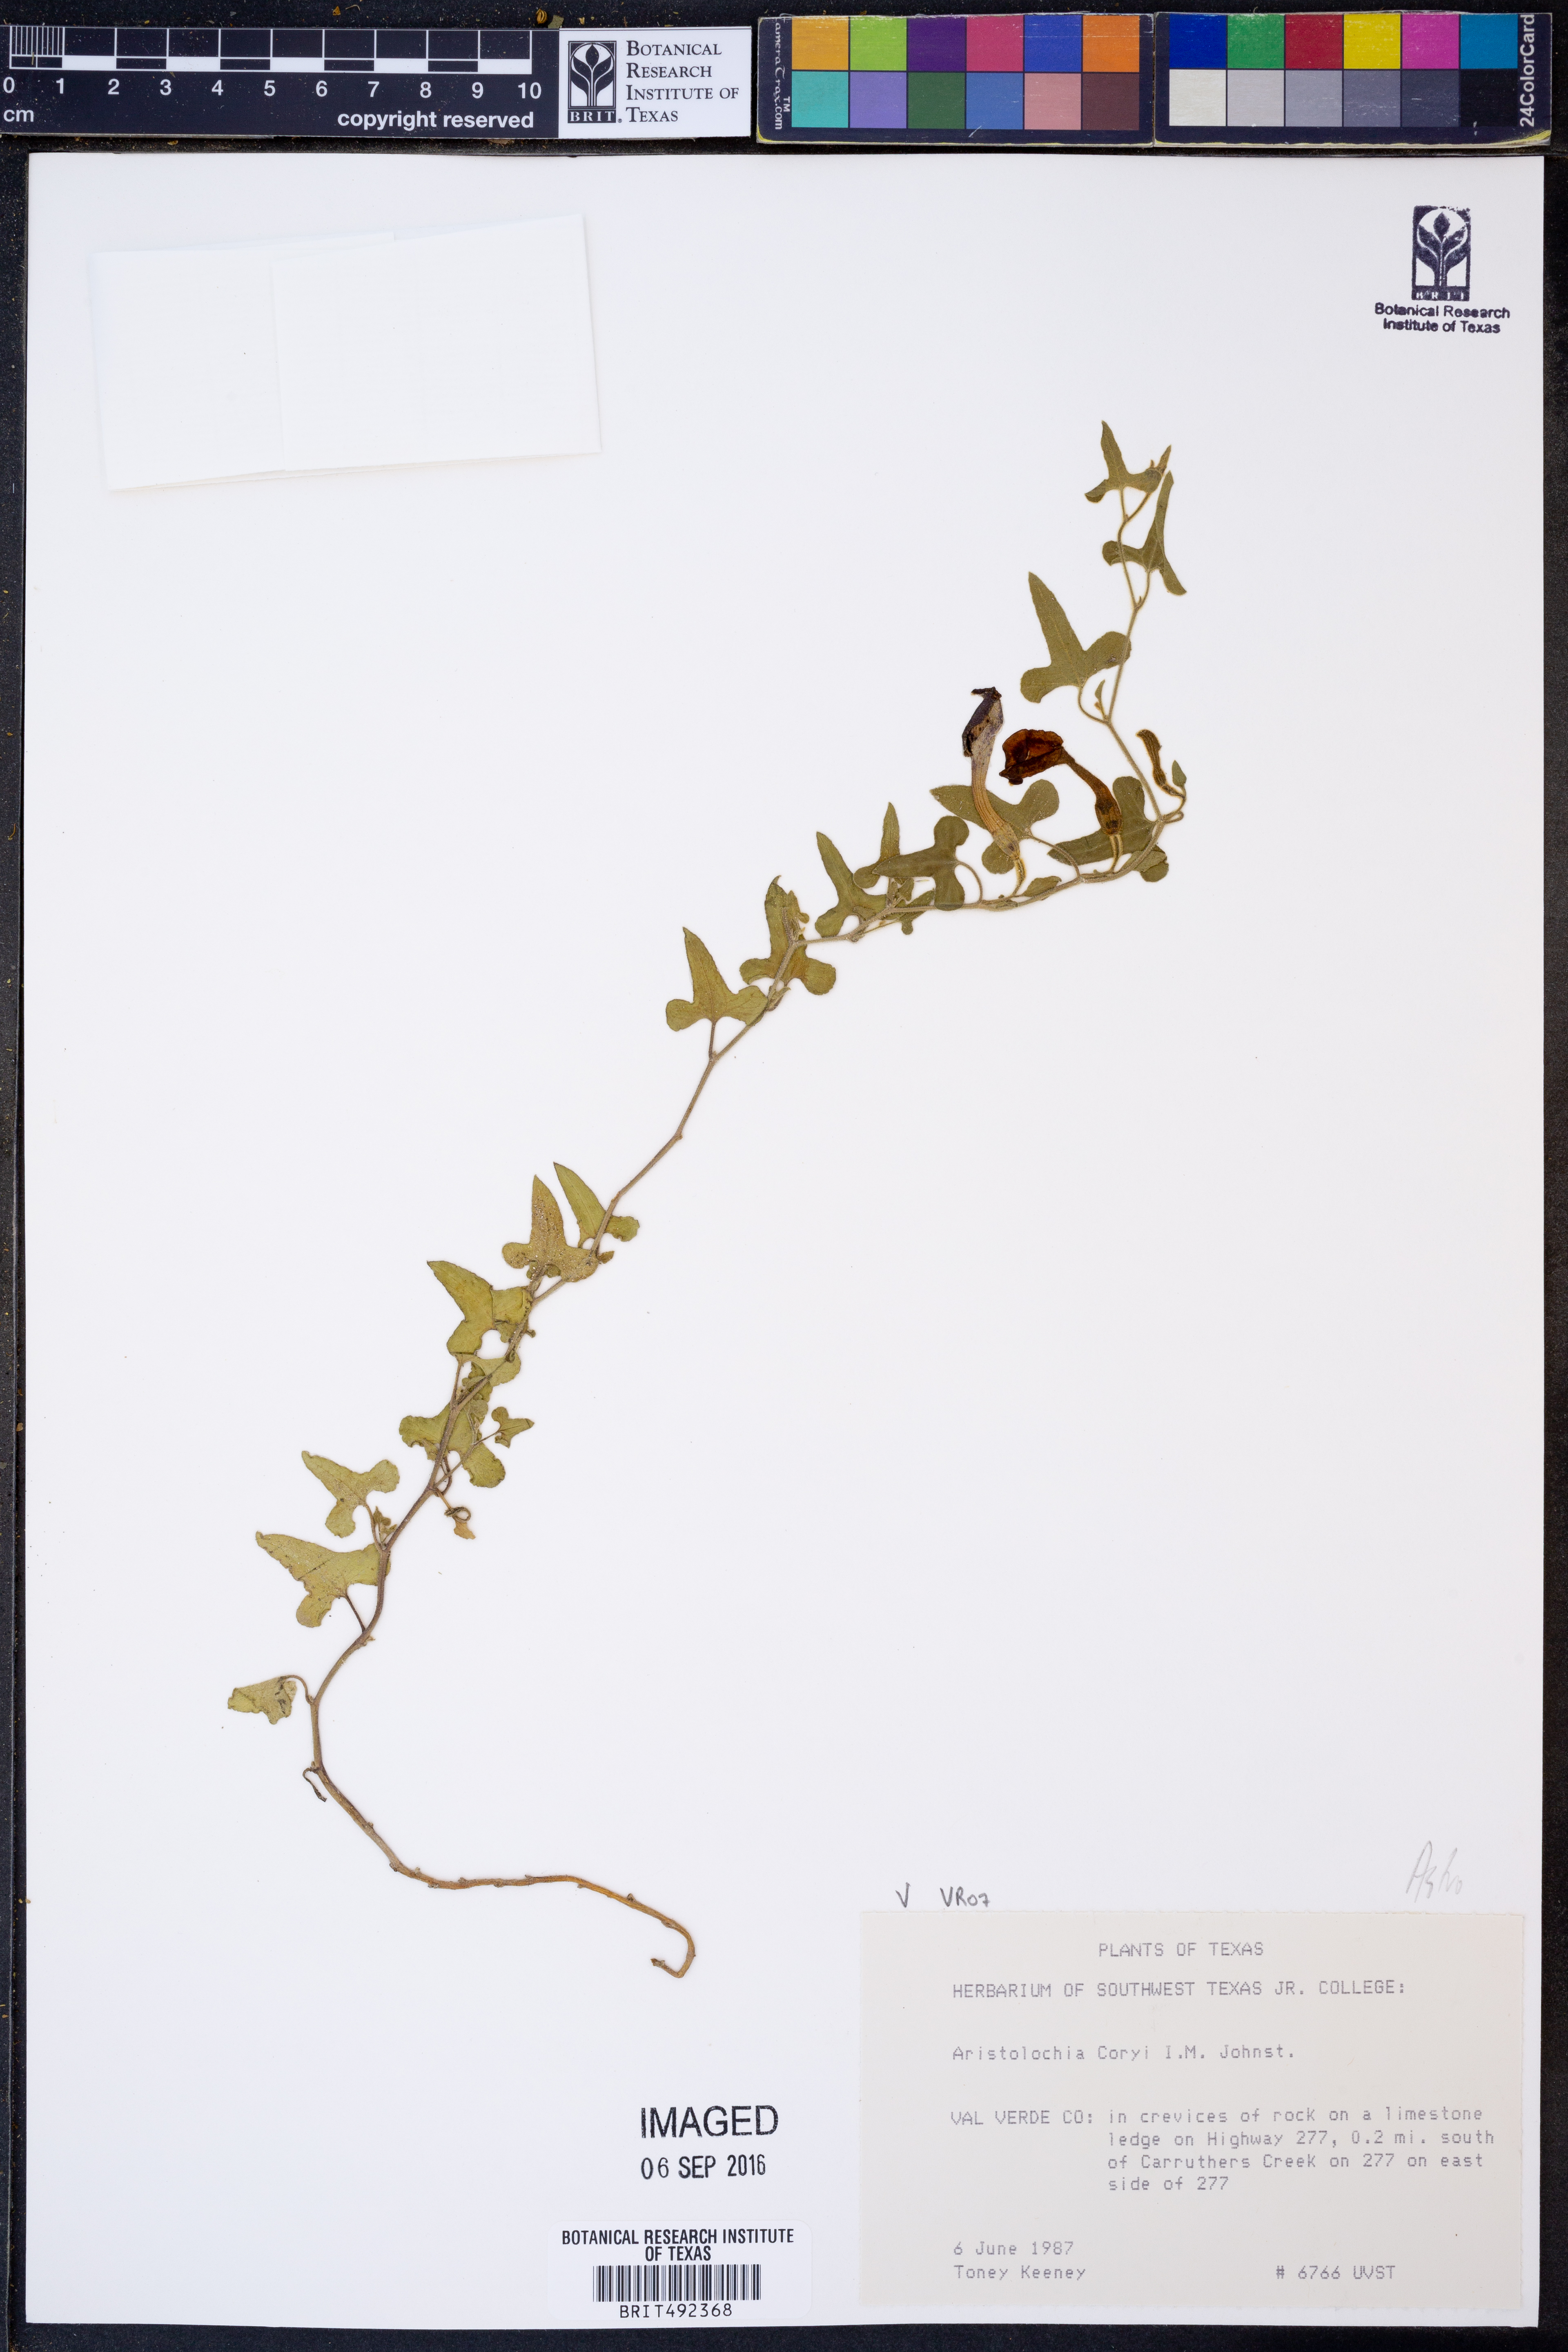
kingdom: Plantae
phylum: Tracheophyta
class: Magnoliopsida
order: Piperales
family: Aristolochiaceae
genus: Aristolochia
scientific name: Aristolochia coryi
